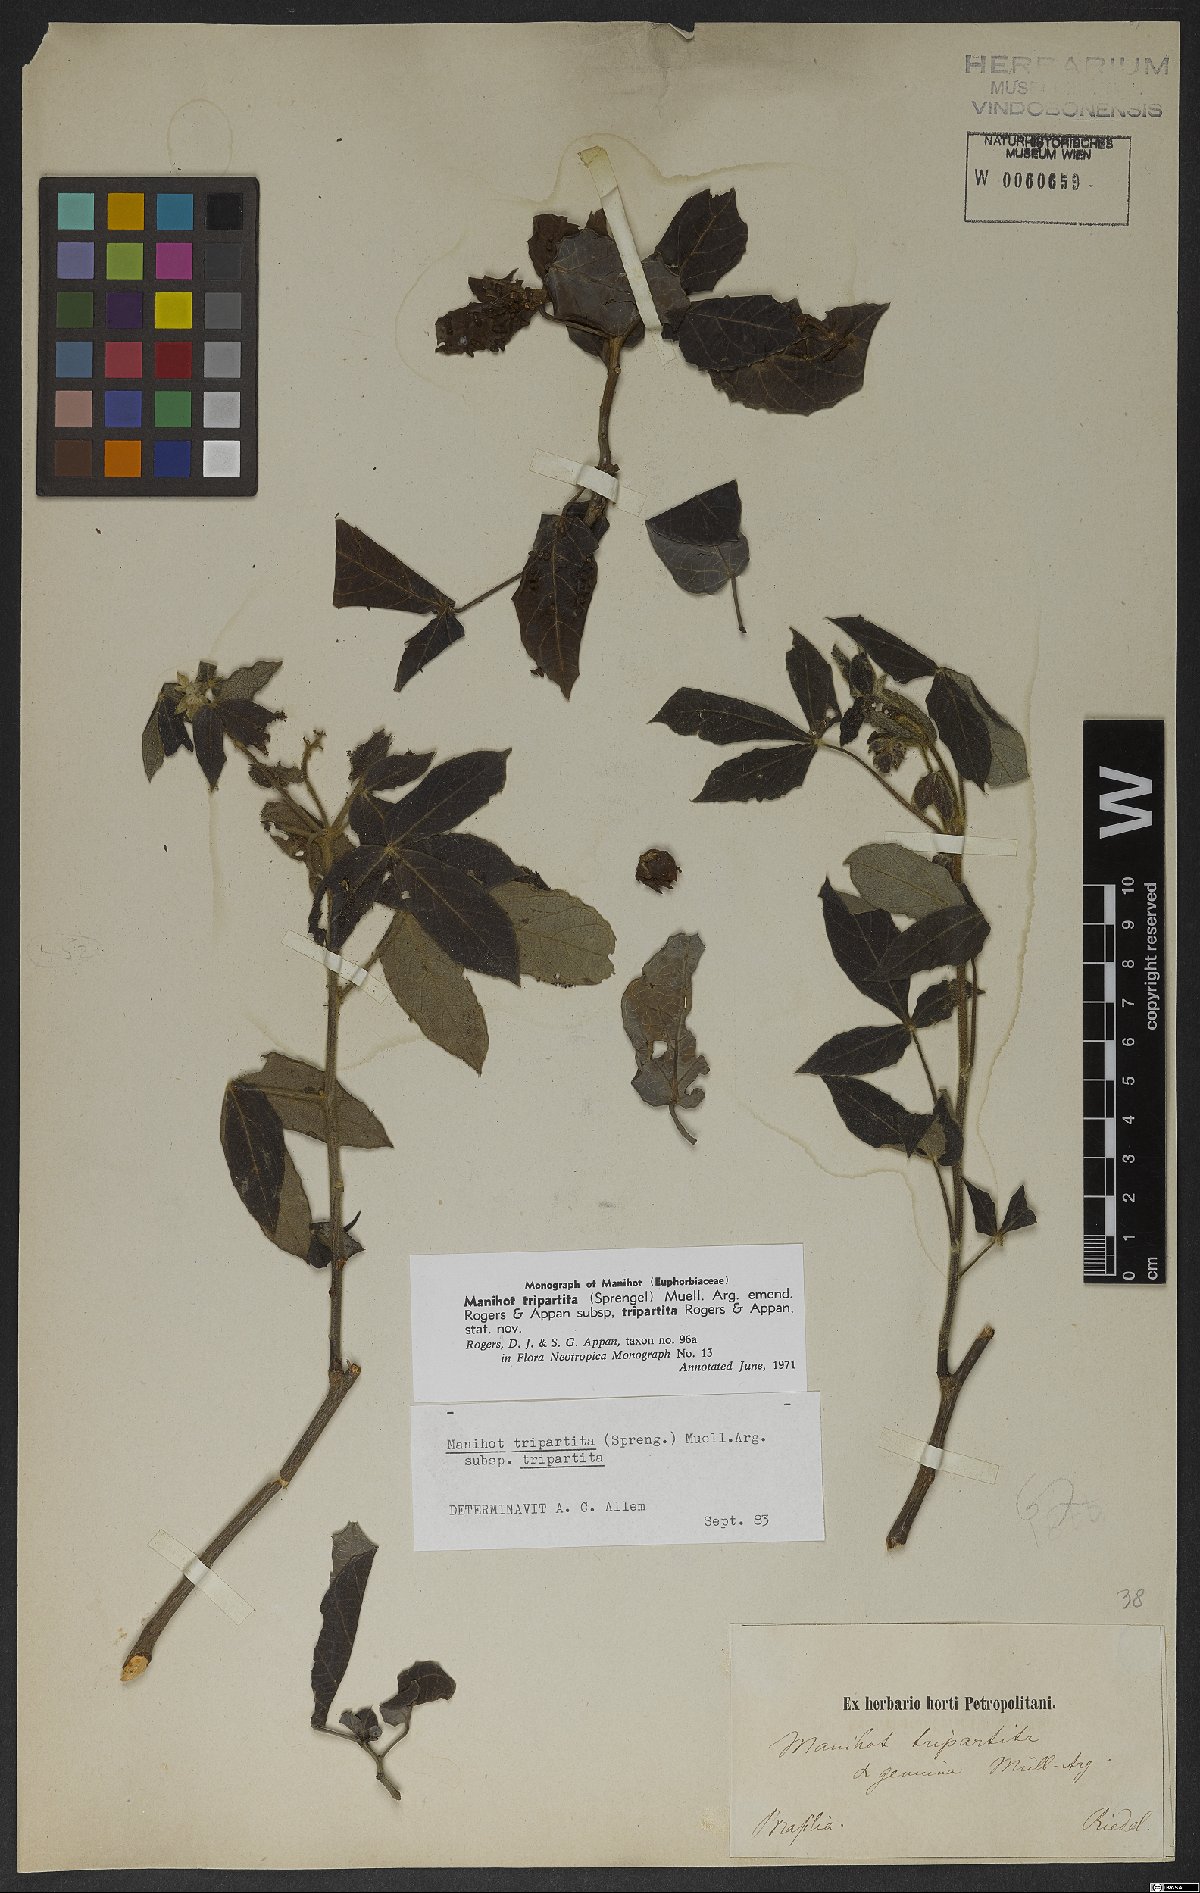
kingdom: Plantae
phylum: Tracheophyta
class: Magnoliopsida
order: Malpighiales
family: Euphorbiaceae
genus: Manihot
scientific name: Manihot tripartita
